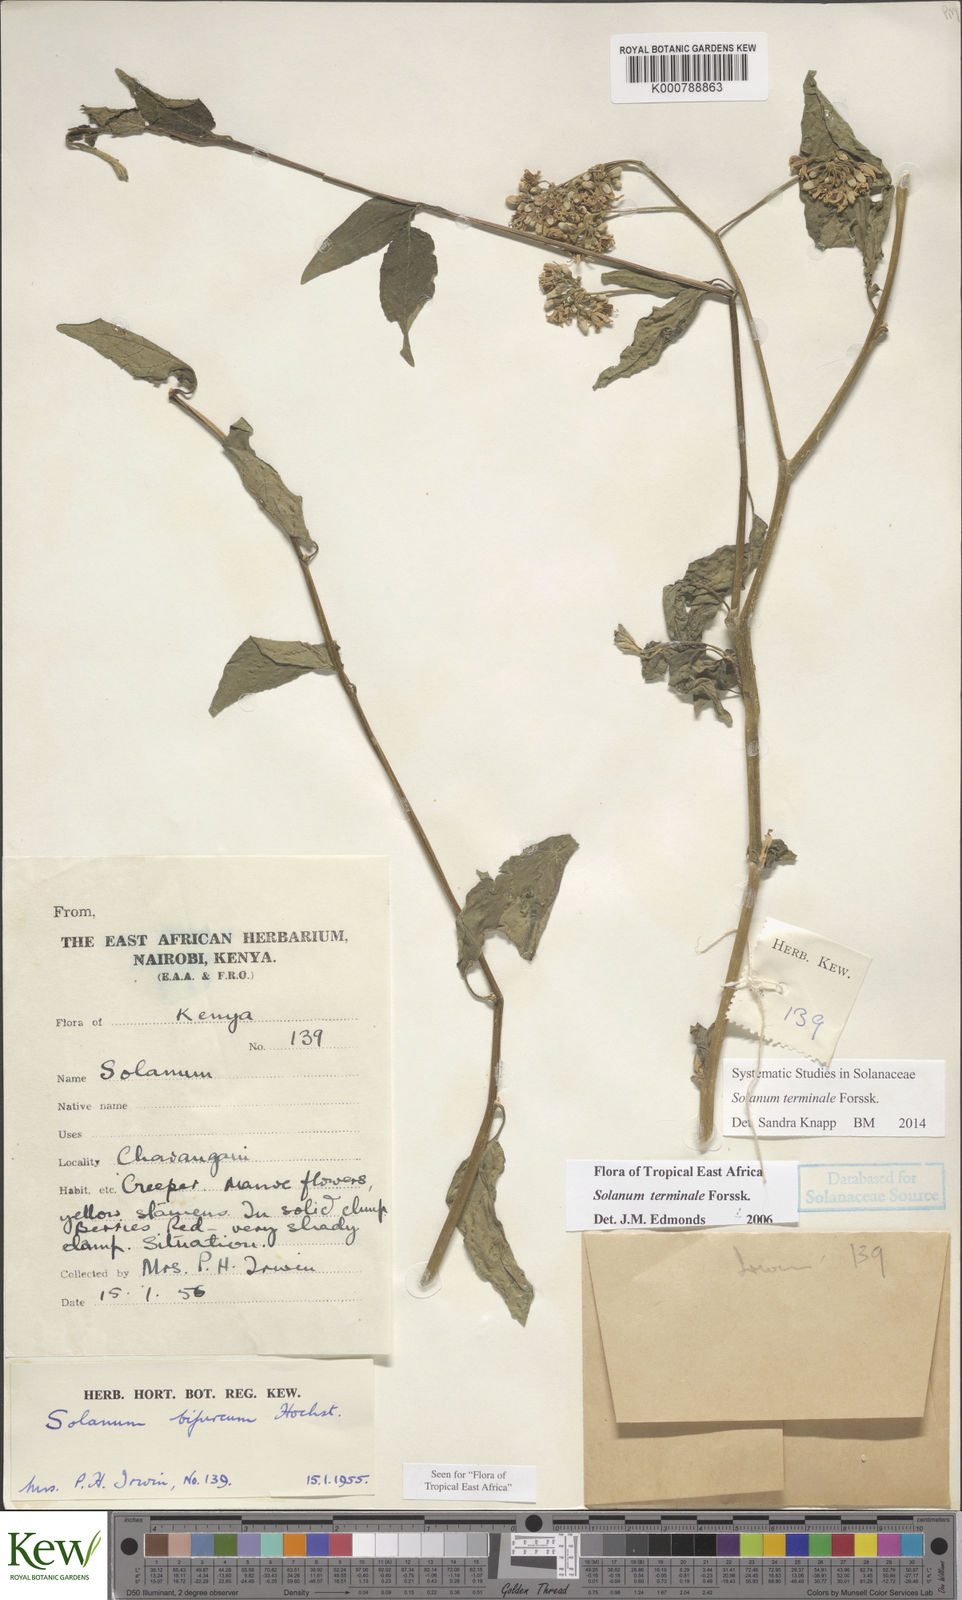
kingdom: Plantae
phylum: Tracheophyta
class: Magnoliopsida
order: Solanales
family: Solanaceae
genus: Solanum
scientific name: Solanum terminale
